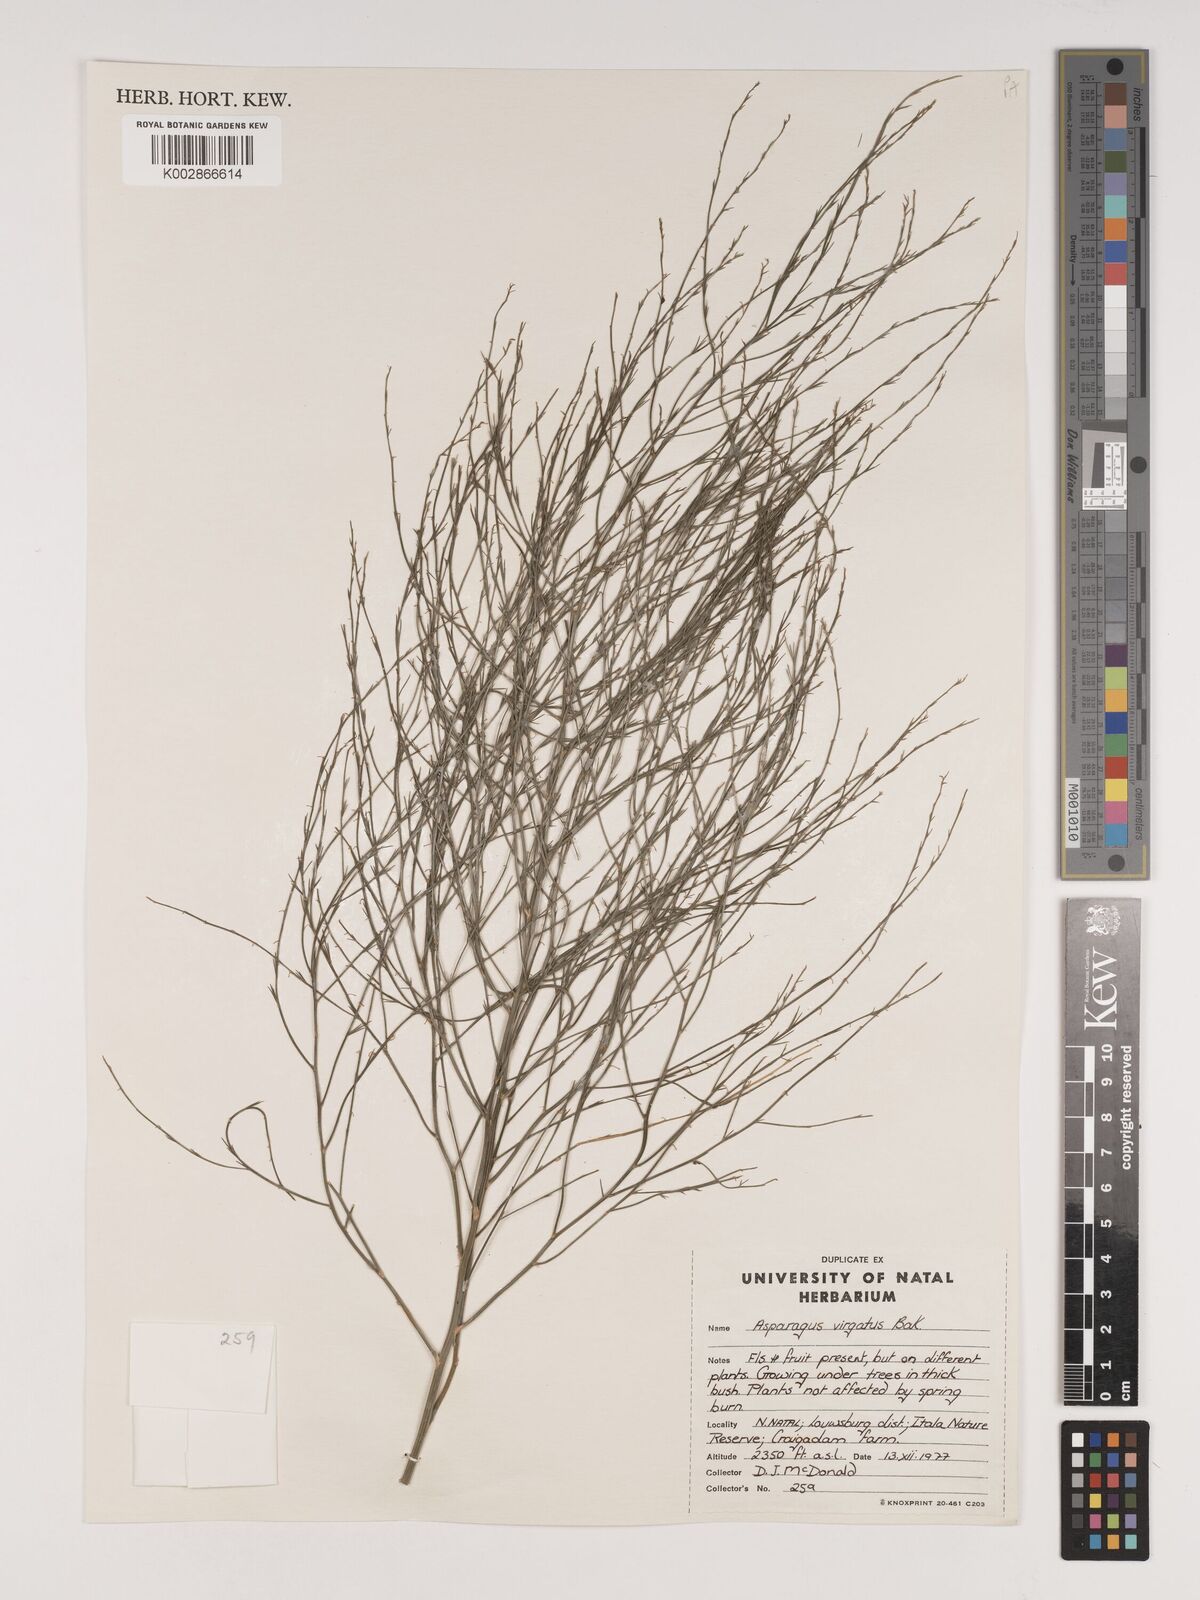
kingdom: Plantae
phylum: Tracheophyta
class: Liliopsida
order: Asparagales
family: Asparagaceae
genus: Asparagus
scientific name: Asparagus virgatus
